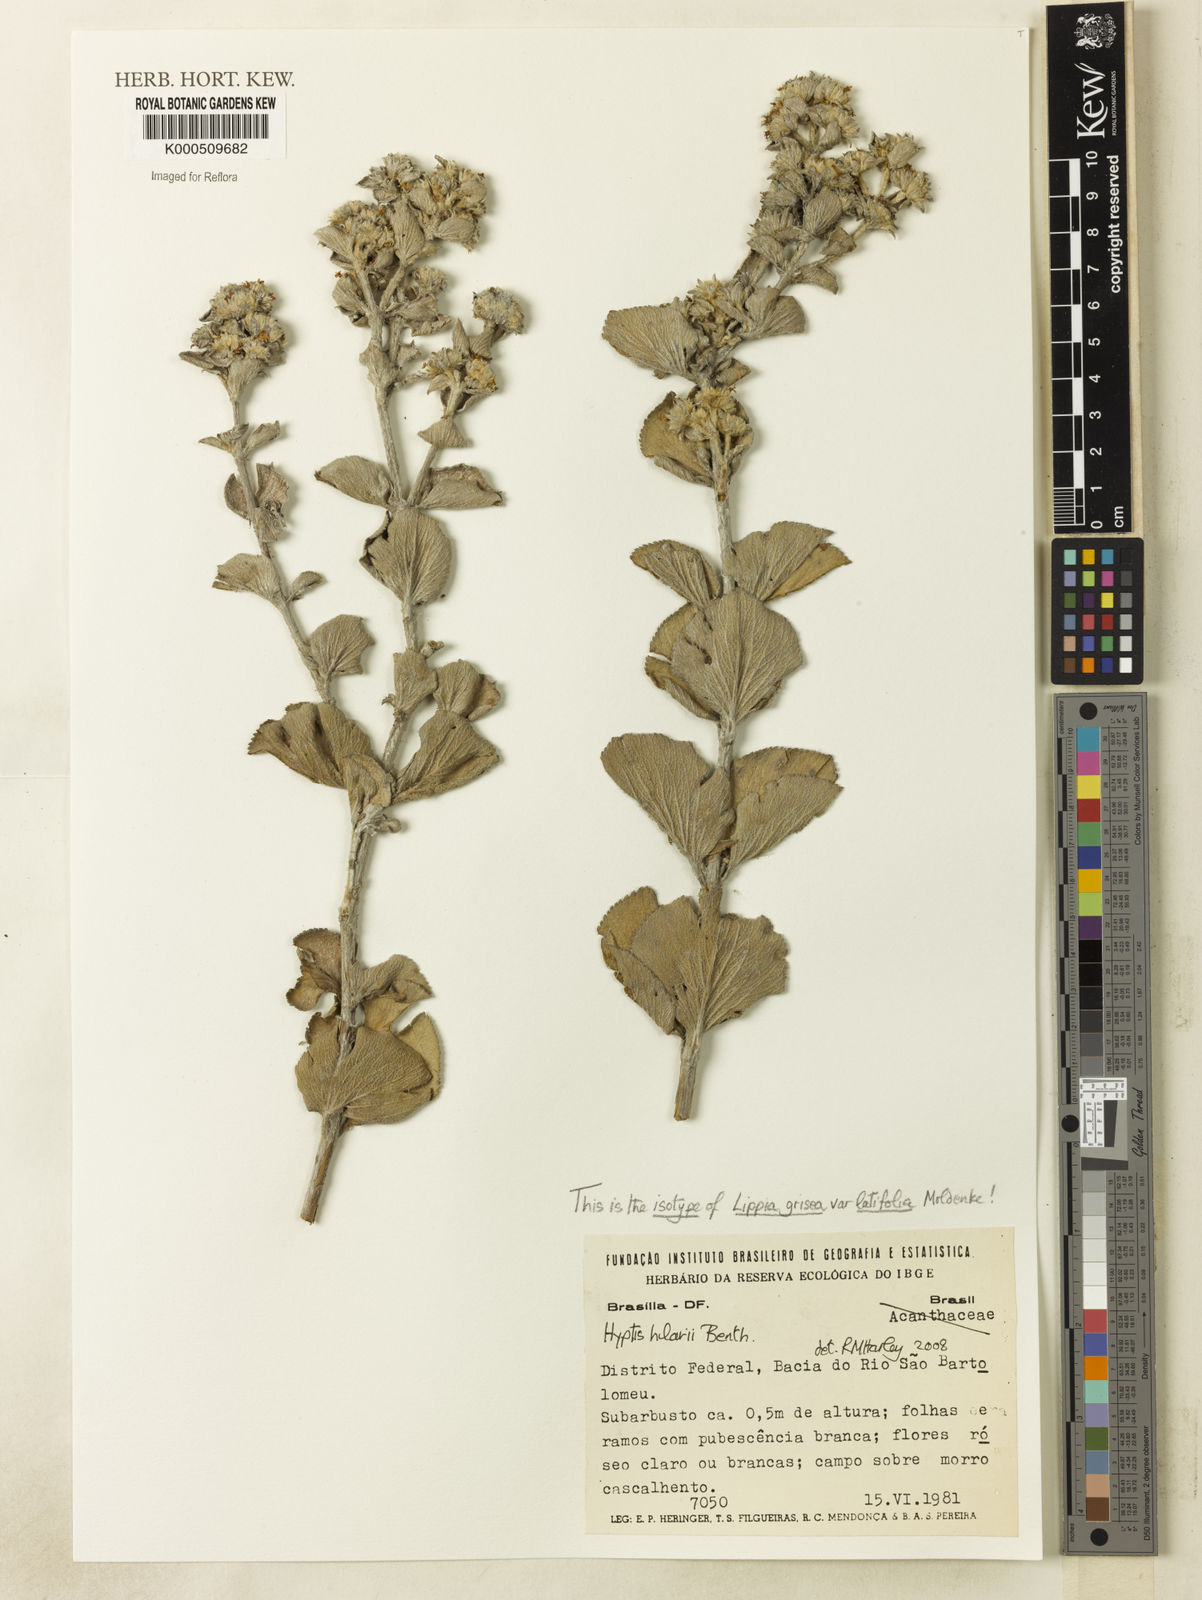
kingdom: Plantae
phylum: Tracheophyta
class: Magnoliopsida
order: Lamiales
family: Lamiaceae
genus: Hyptis
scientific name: Hyptis hilarii
